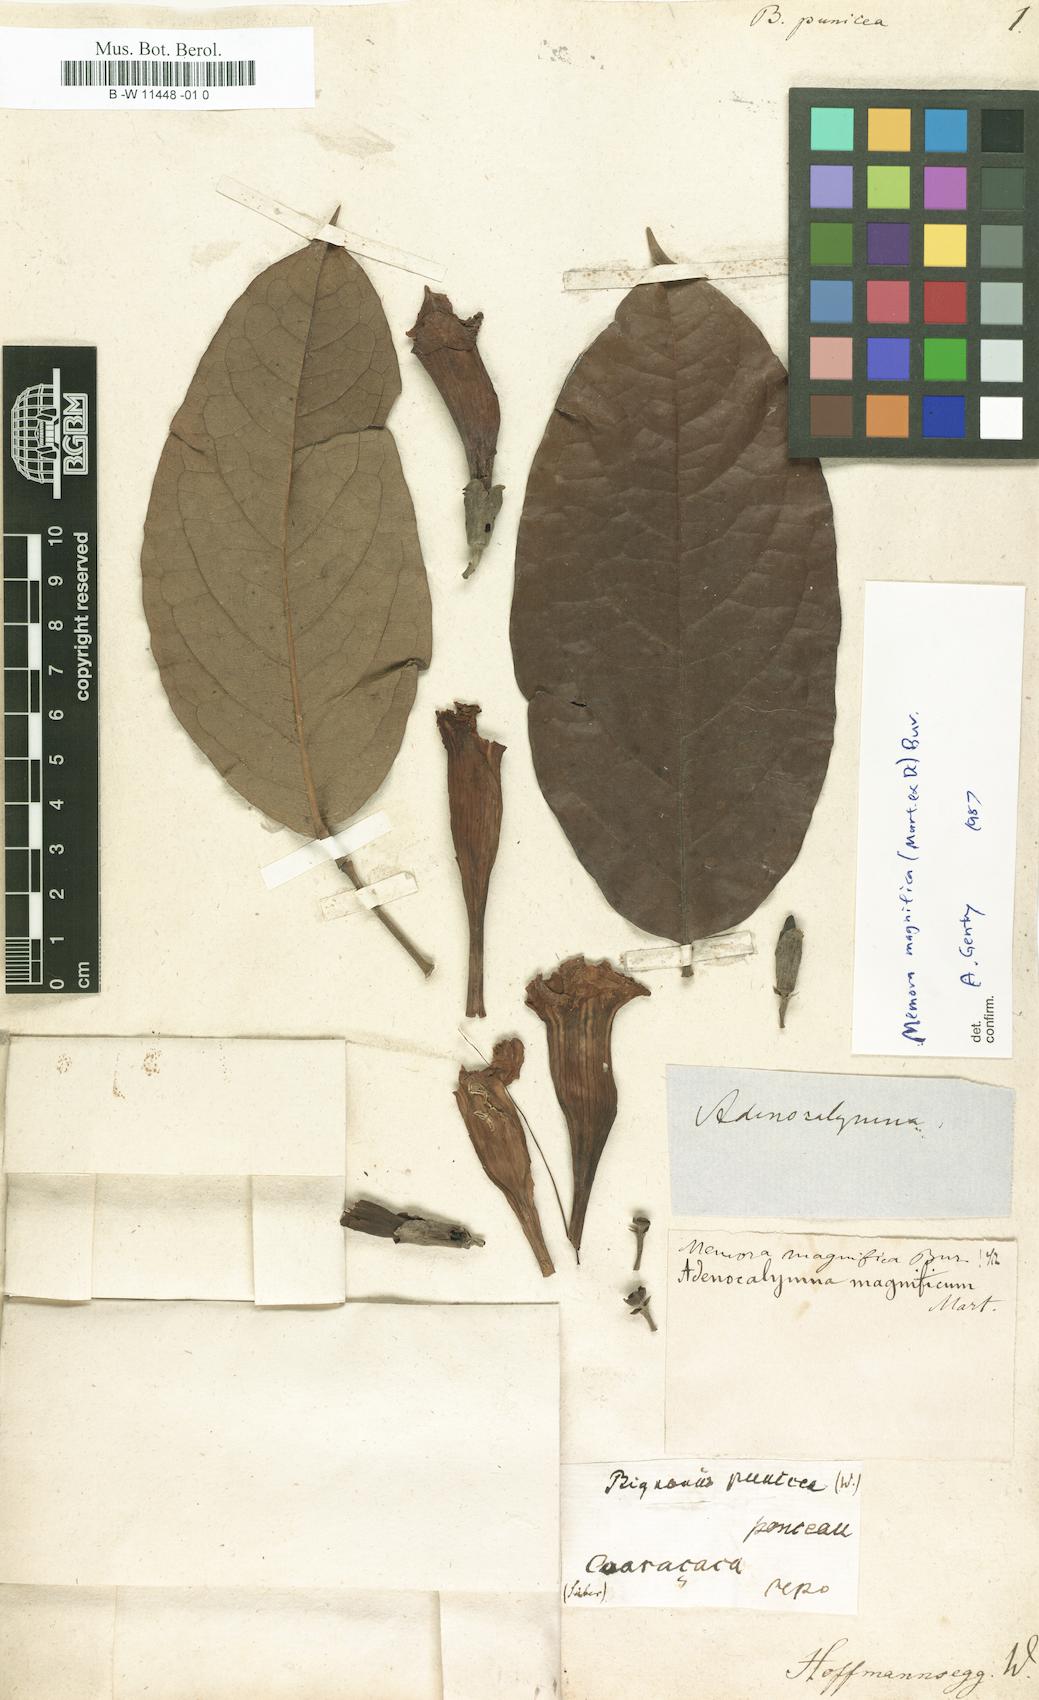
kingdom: Plantae
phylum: Tracheophyta
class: Magnoliopsida
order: Lamiales
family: Bignoniaceae
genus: Fridericia
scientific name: Fridericia leucopogon
